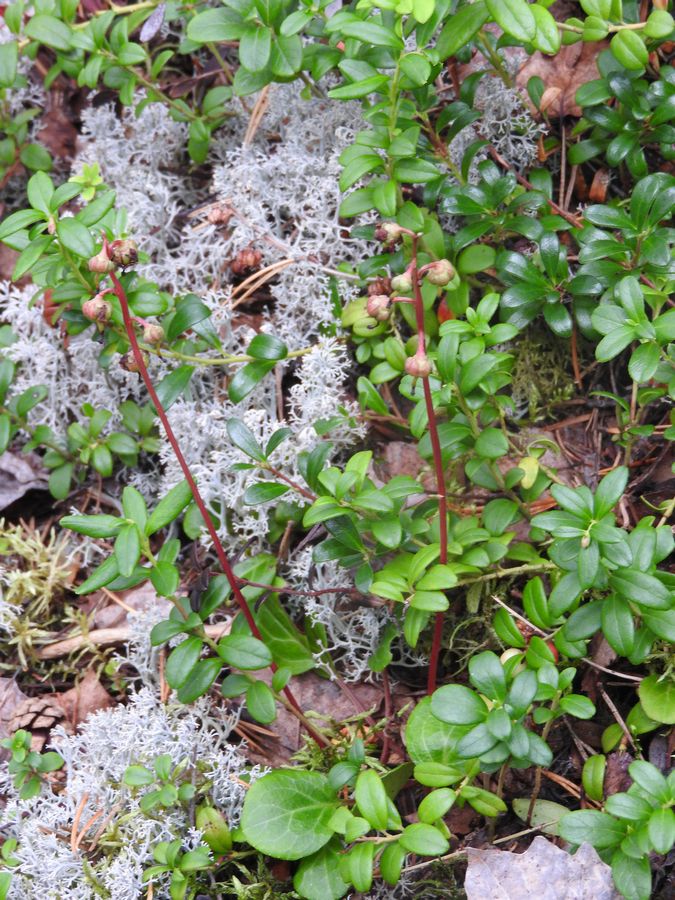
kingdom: Plantae
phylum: Tracheophyta
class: Magnoliopsida
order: Ericales
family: Ericaceae
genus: Pyrola
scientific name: Pyrola chlorantha
